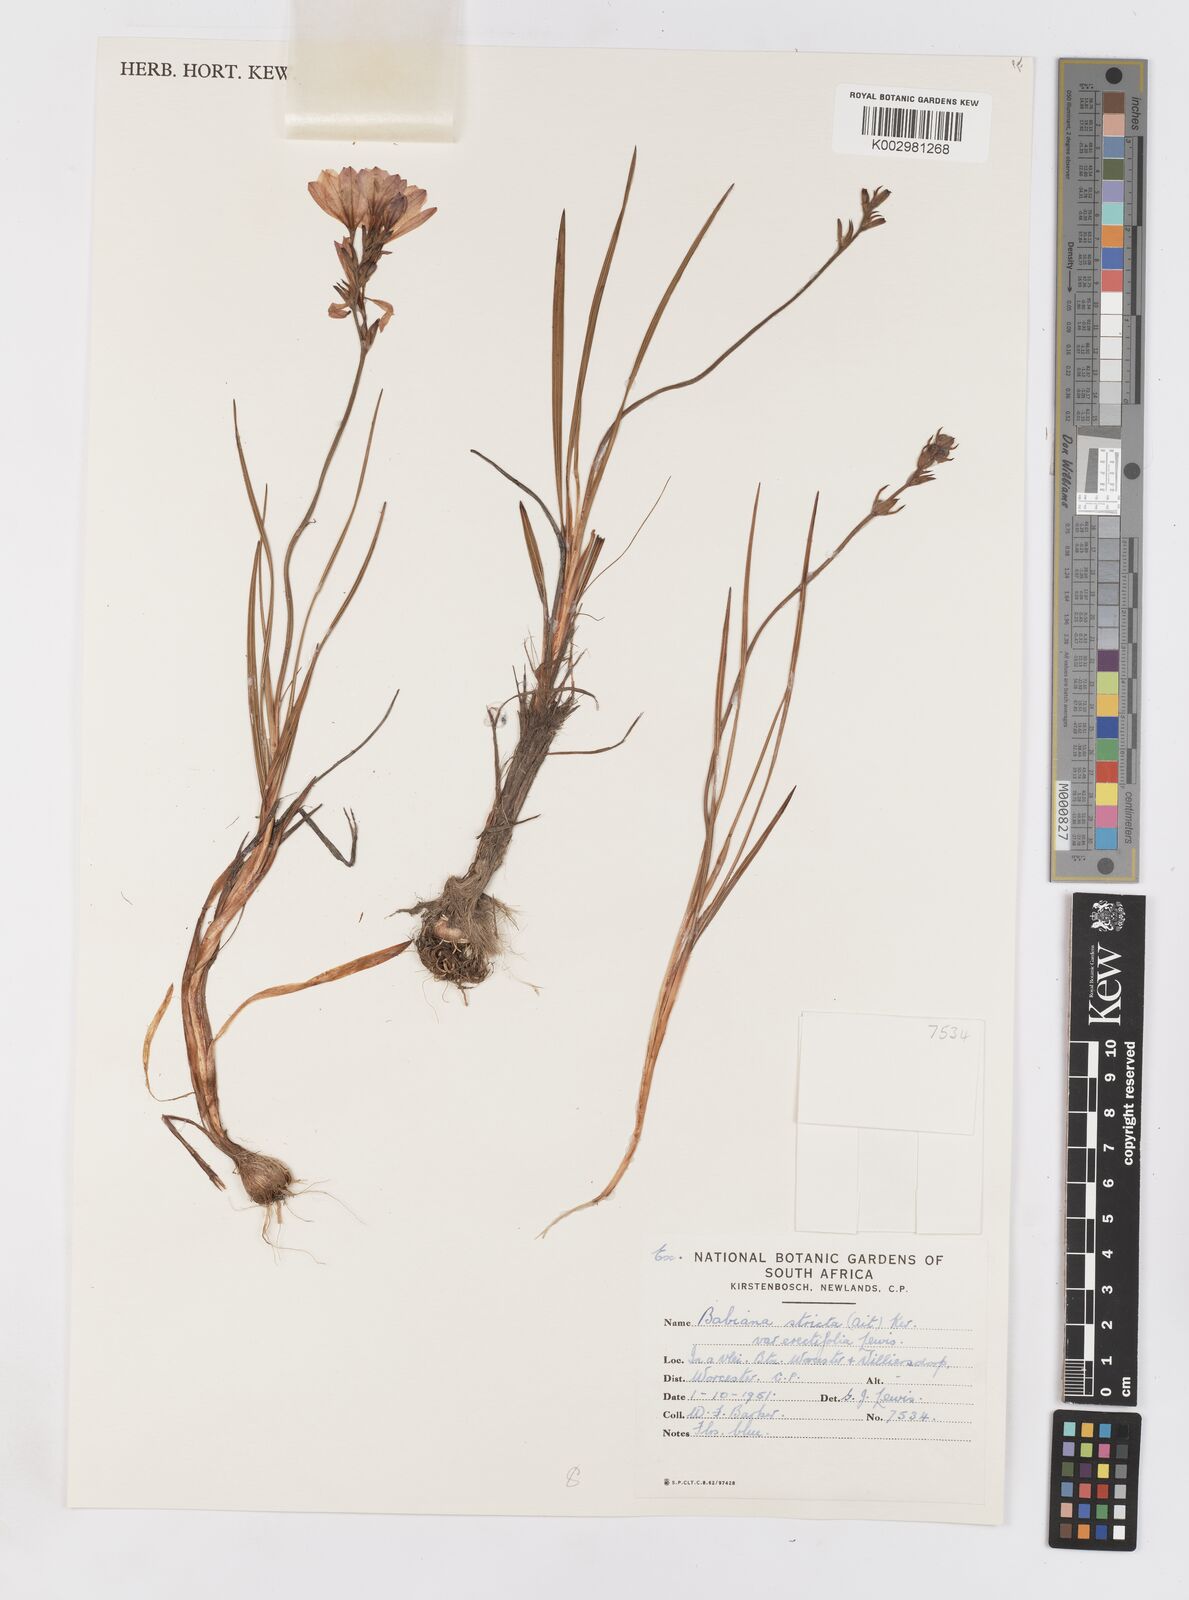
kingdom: Plantae
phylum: Tracheophyta
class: Liliopsida
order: Asparagales
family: Iridaceae
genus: Babiana
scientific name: Babiana regia
